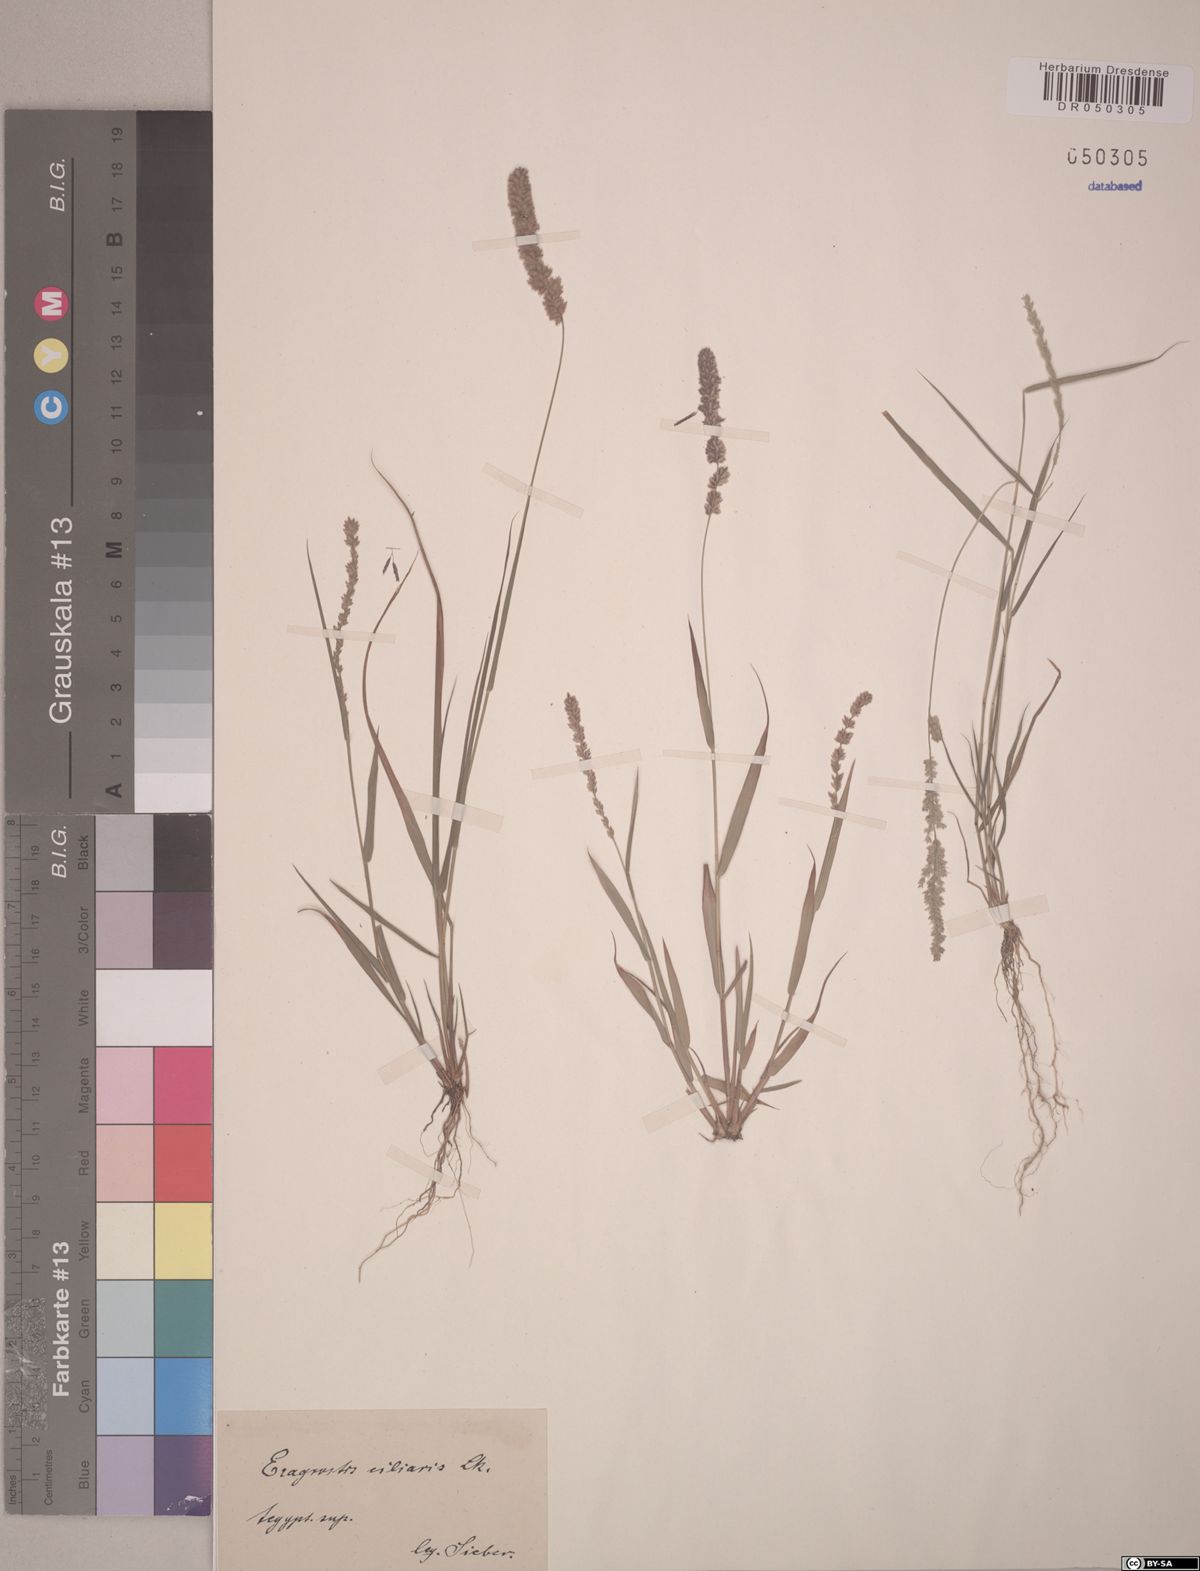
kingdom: Plantae
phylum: Tracheophyta
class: Liliopsida
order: Poales
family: Poaceae
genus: Eragrostis
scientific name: Eragrostis ciliaris
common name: Gophertail lovegrass
